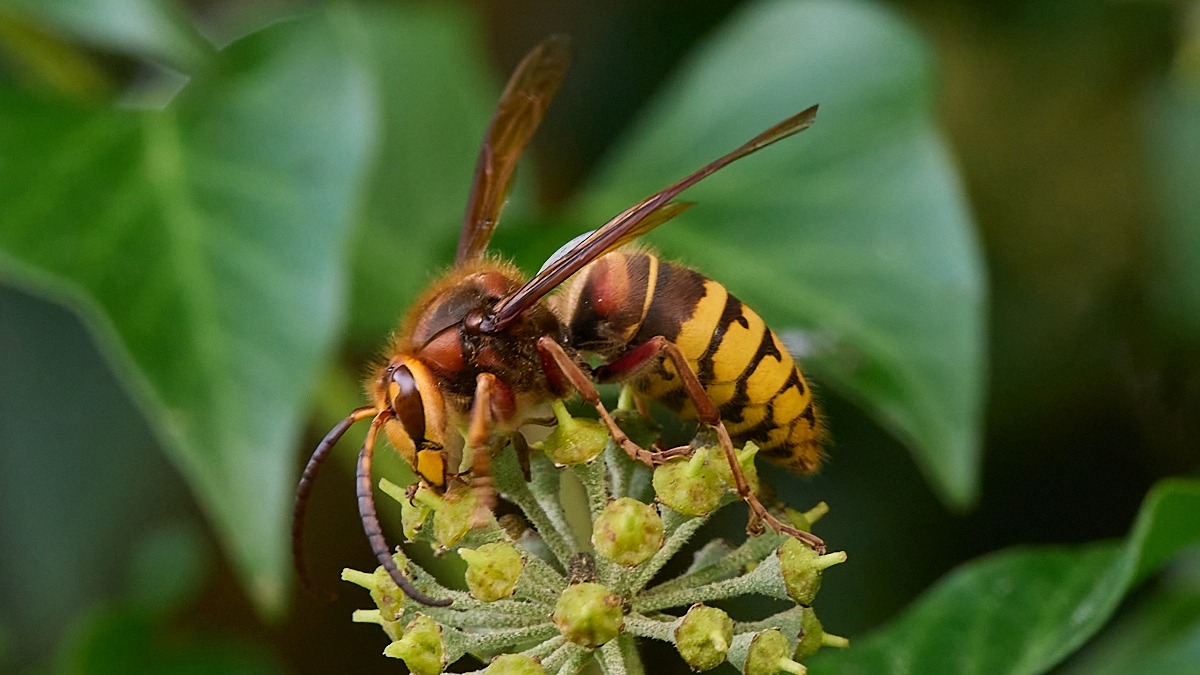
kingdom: Animalia
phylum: Arthropoda
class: Insecta
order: Hymenoptera
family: Vespidae
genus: Vespa
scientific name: Vespa crabro
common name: Stor gedehams
